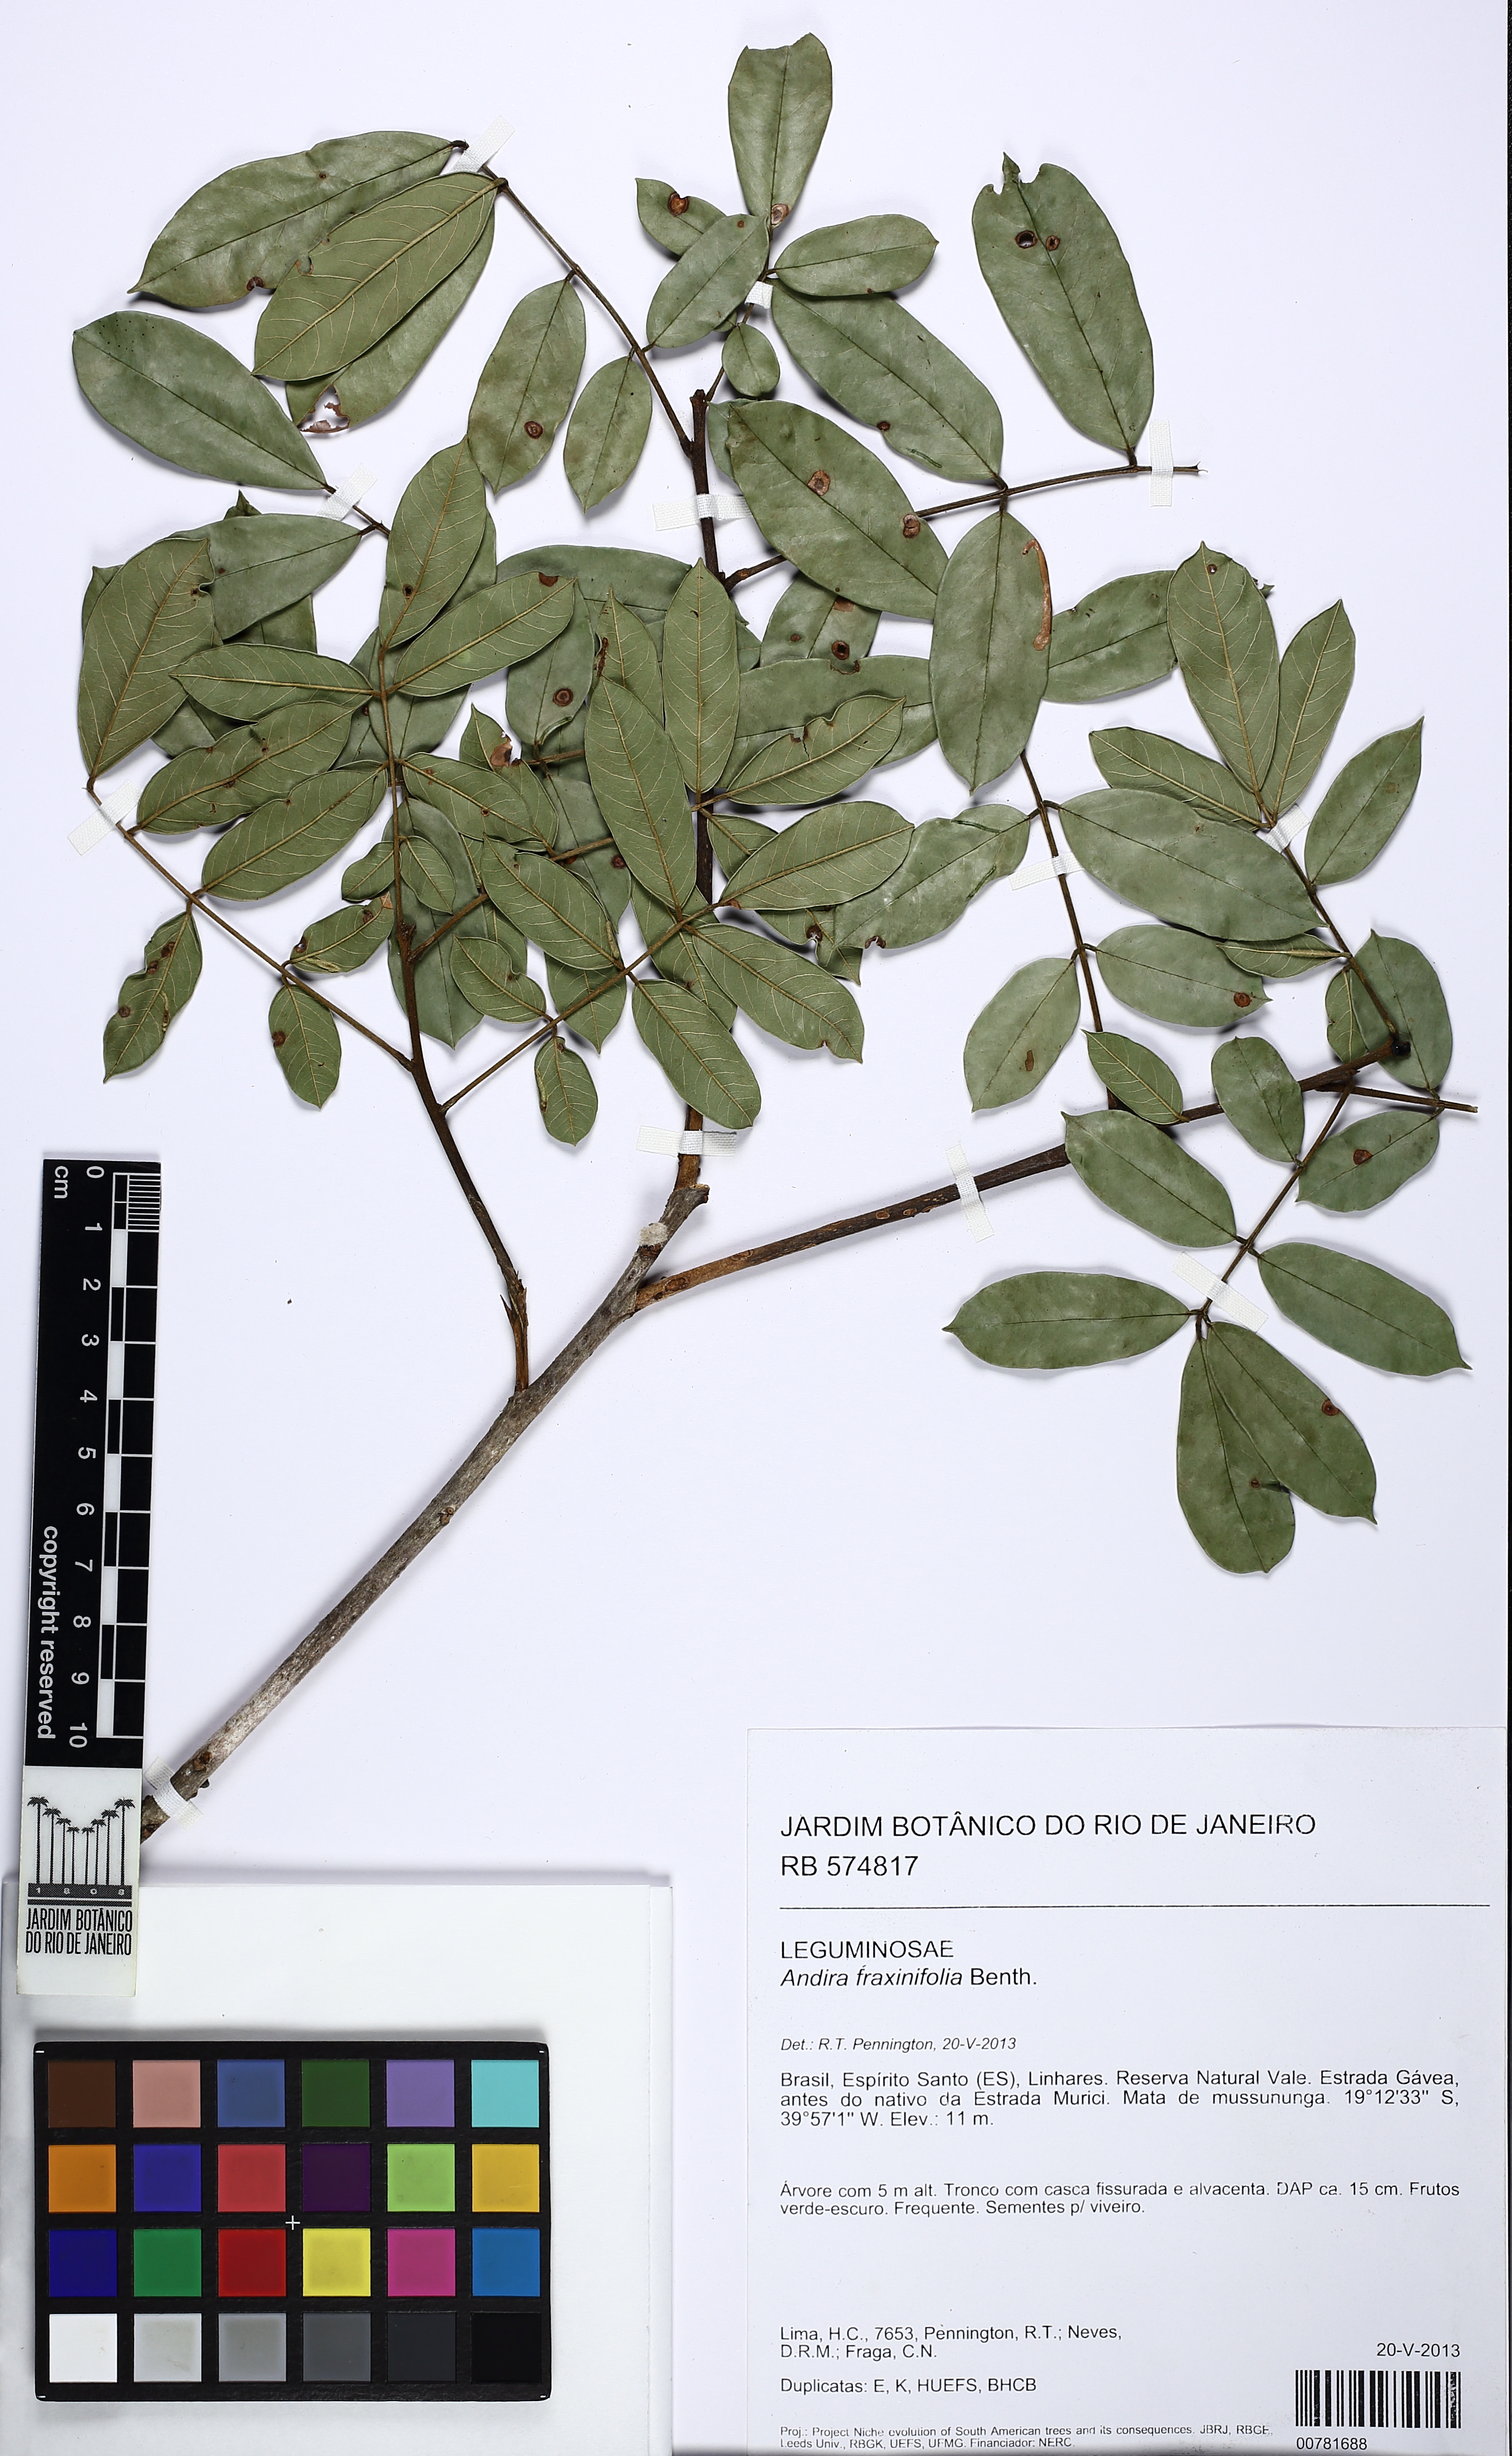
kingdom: Plantae
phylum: Tracheophyta
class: Magnoliopsida
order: Fabales
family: Fabaceae
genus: Andira
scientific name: Andira fraxinifolia
